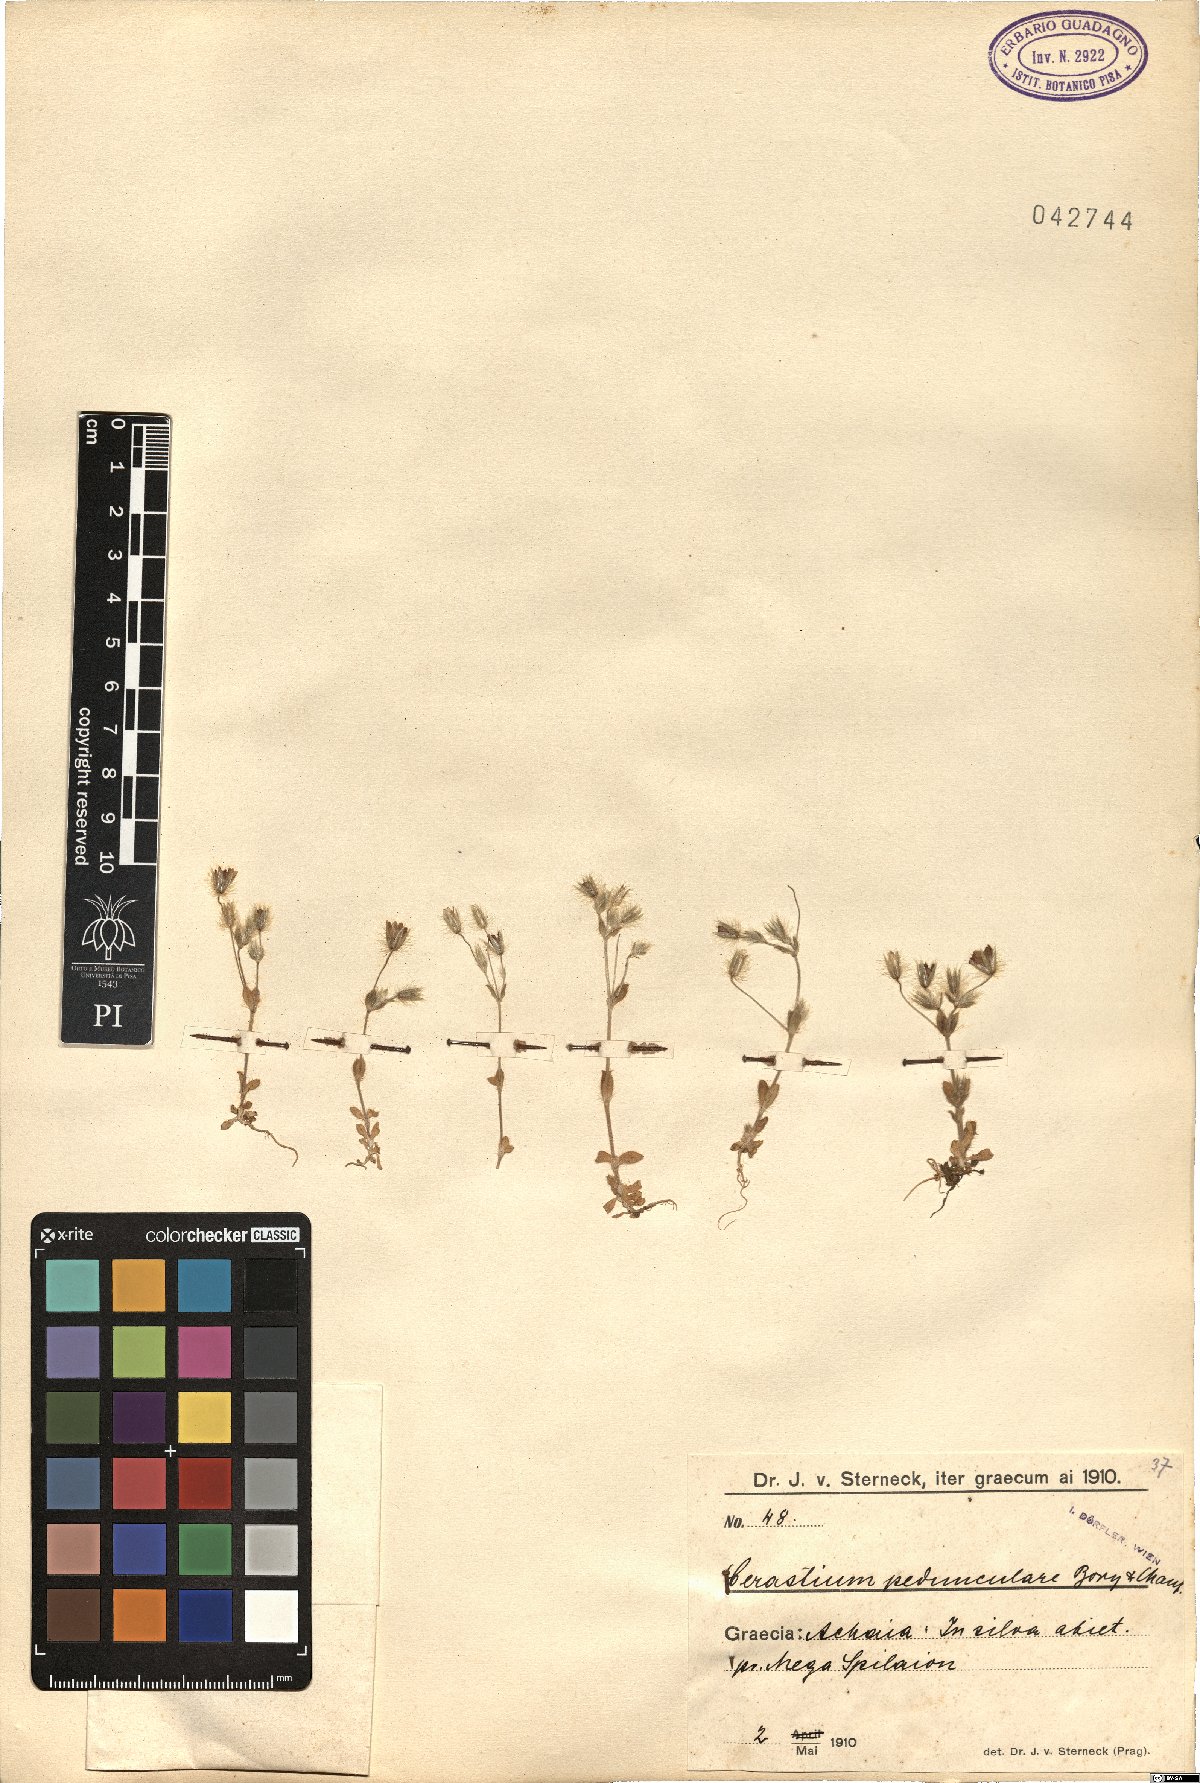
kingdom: Plantae
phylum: Tracheophyta
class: Magnoliopsida
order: Caryophyllales
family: Caryophyllaceae
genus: Cerastium
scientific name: Cerastium pedunculare
